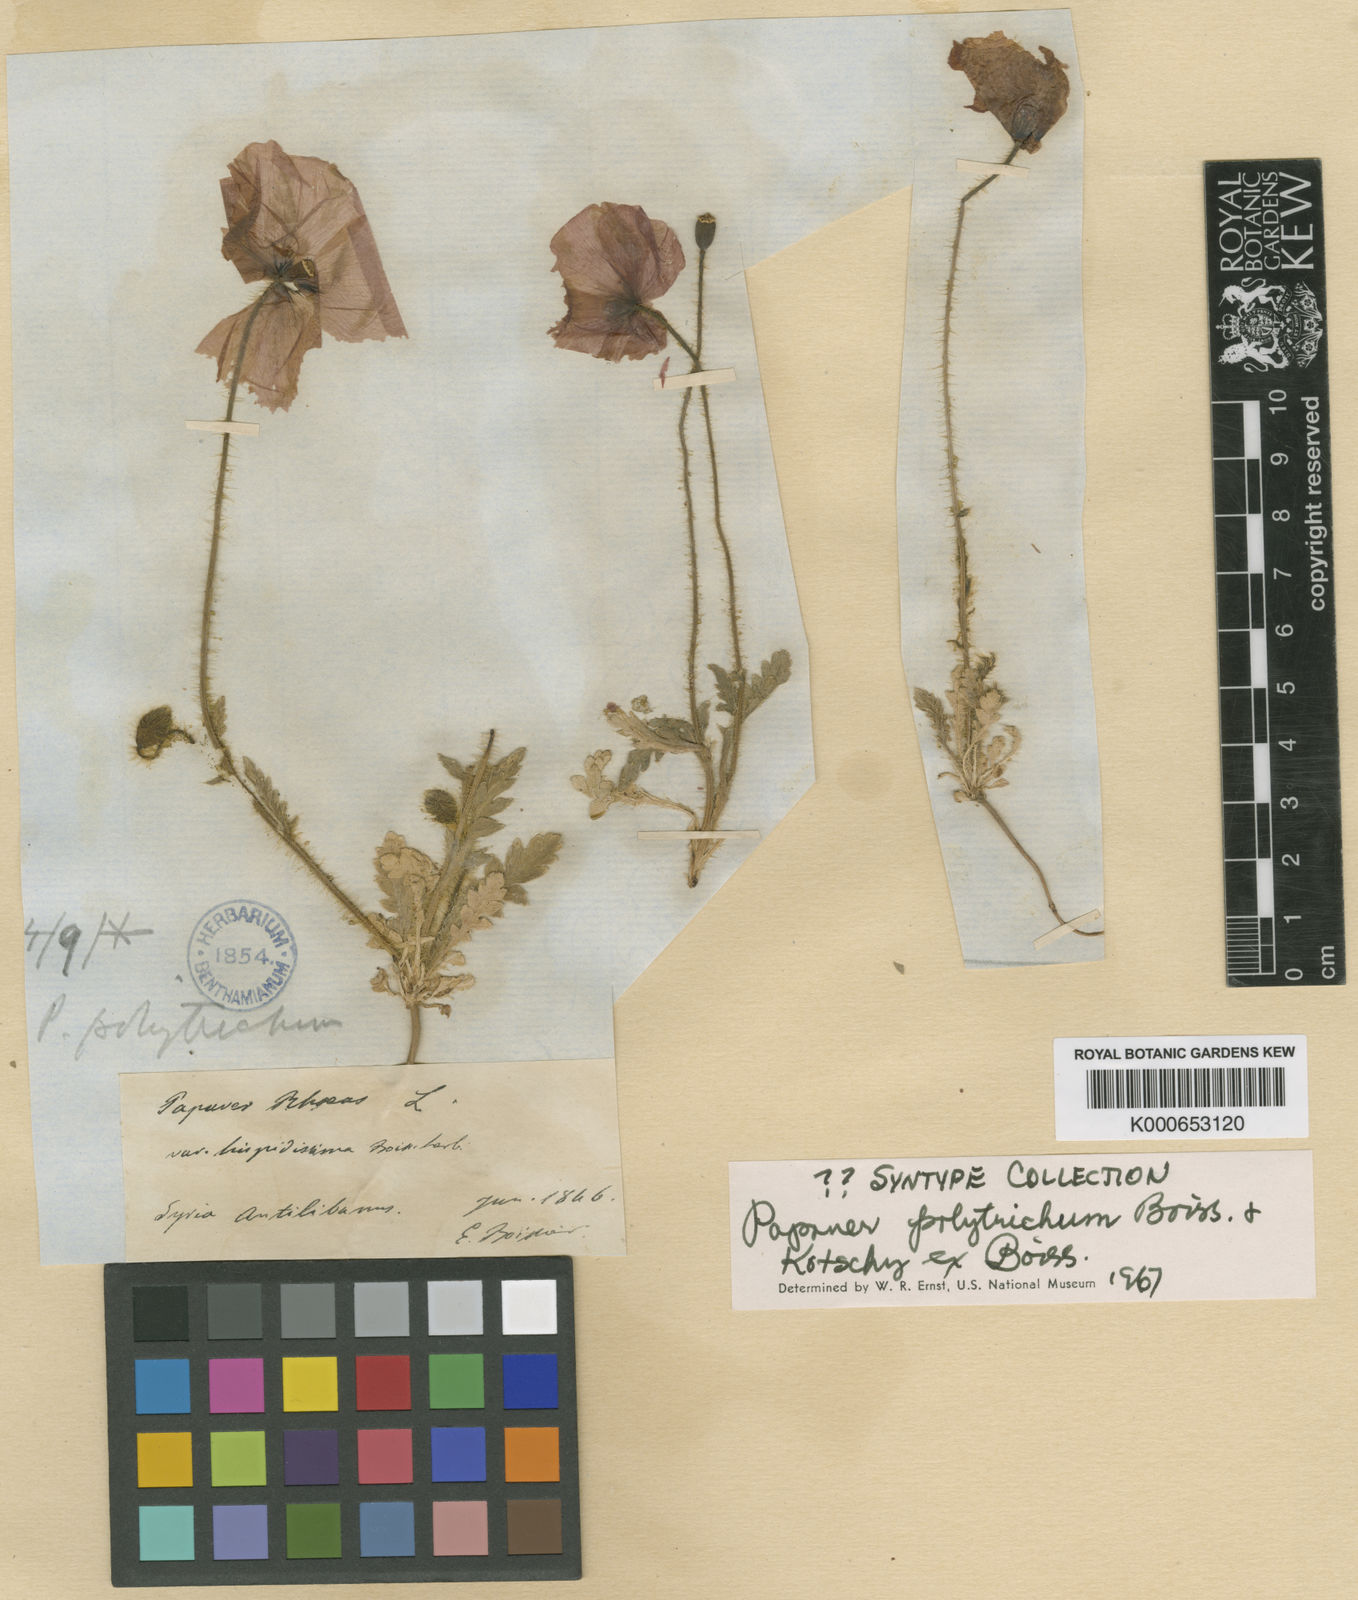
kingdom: Plantae
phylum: Tracheophyta
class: Magnoliopsida
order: Ranunculales
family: Papaveraceae
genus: Papaver
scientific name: Papaver rhoeas
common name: Corn poppy
